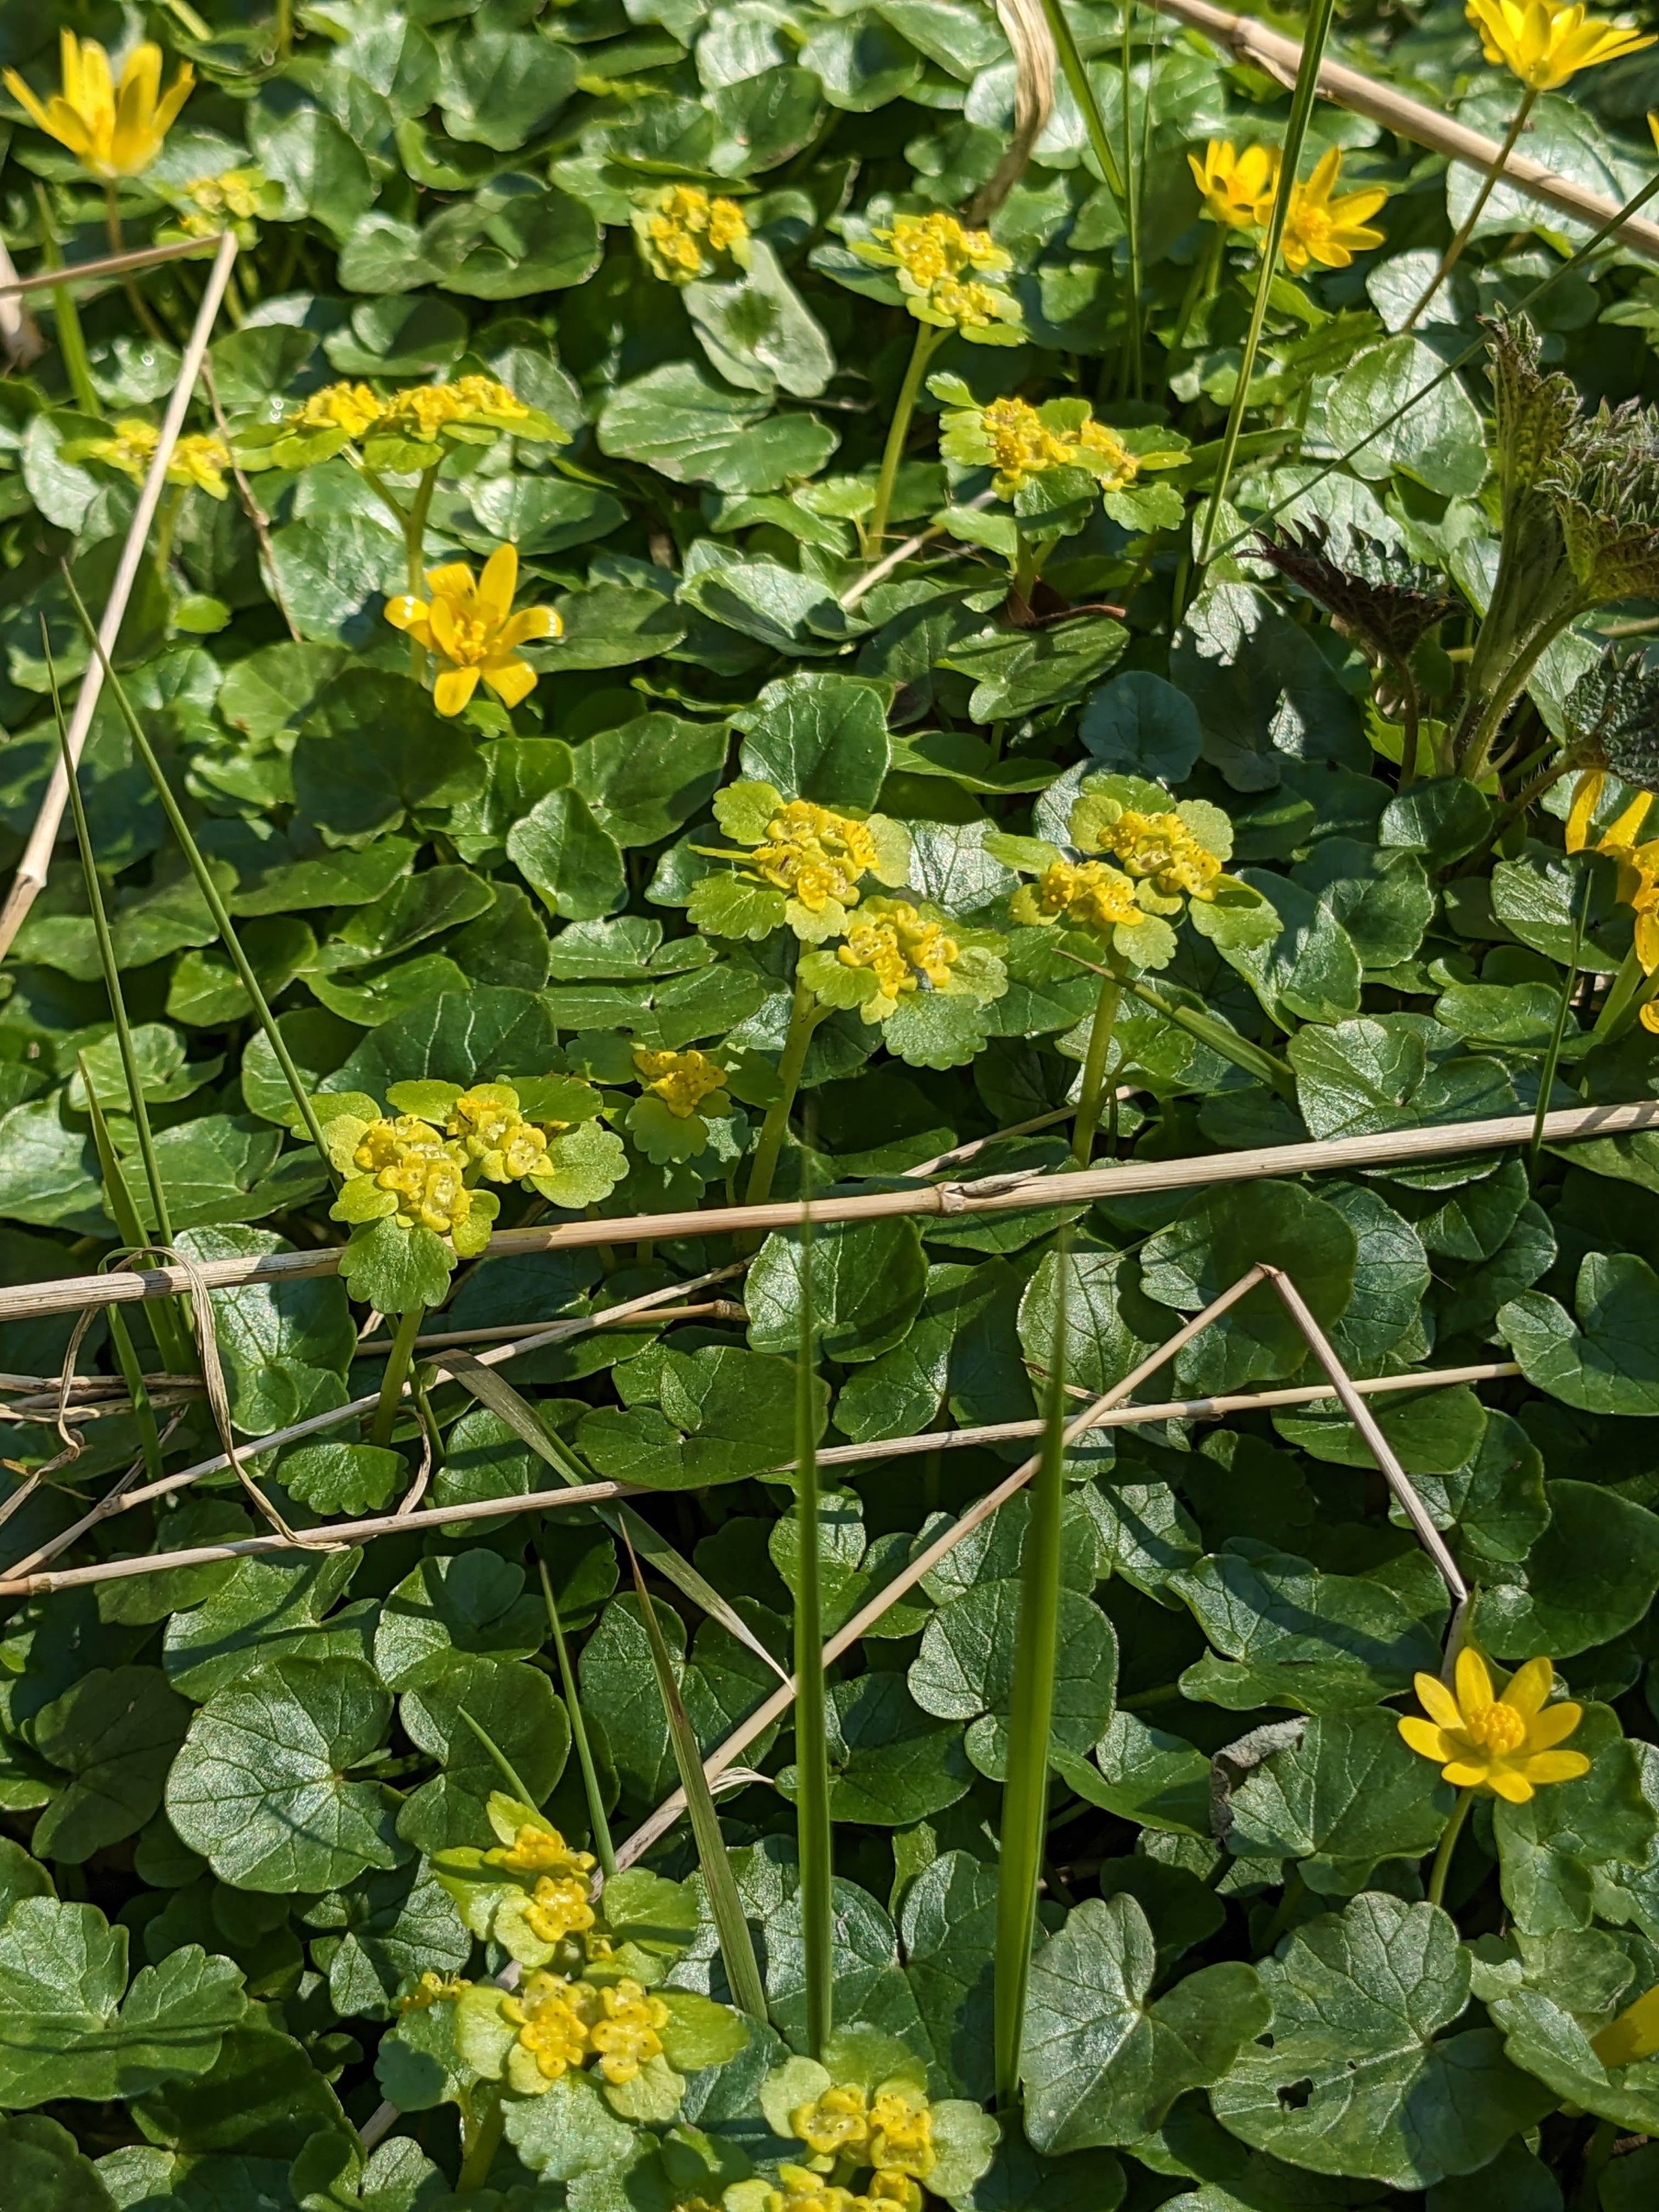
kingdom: Plantae
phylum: Tracheophyta
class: Magnoliopsida
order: Saxifragales
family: Saxifragaceae
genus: Chrysosplenium
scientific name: Chrysosplenium alternifolium
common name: Almindelig milturt
